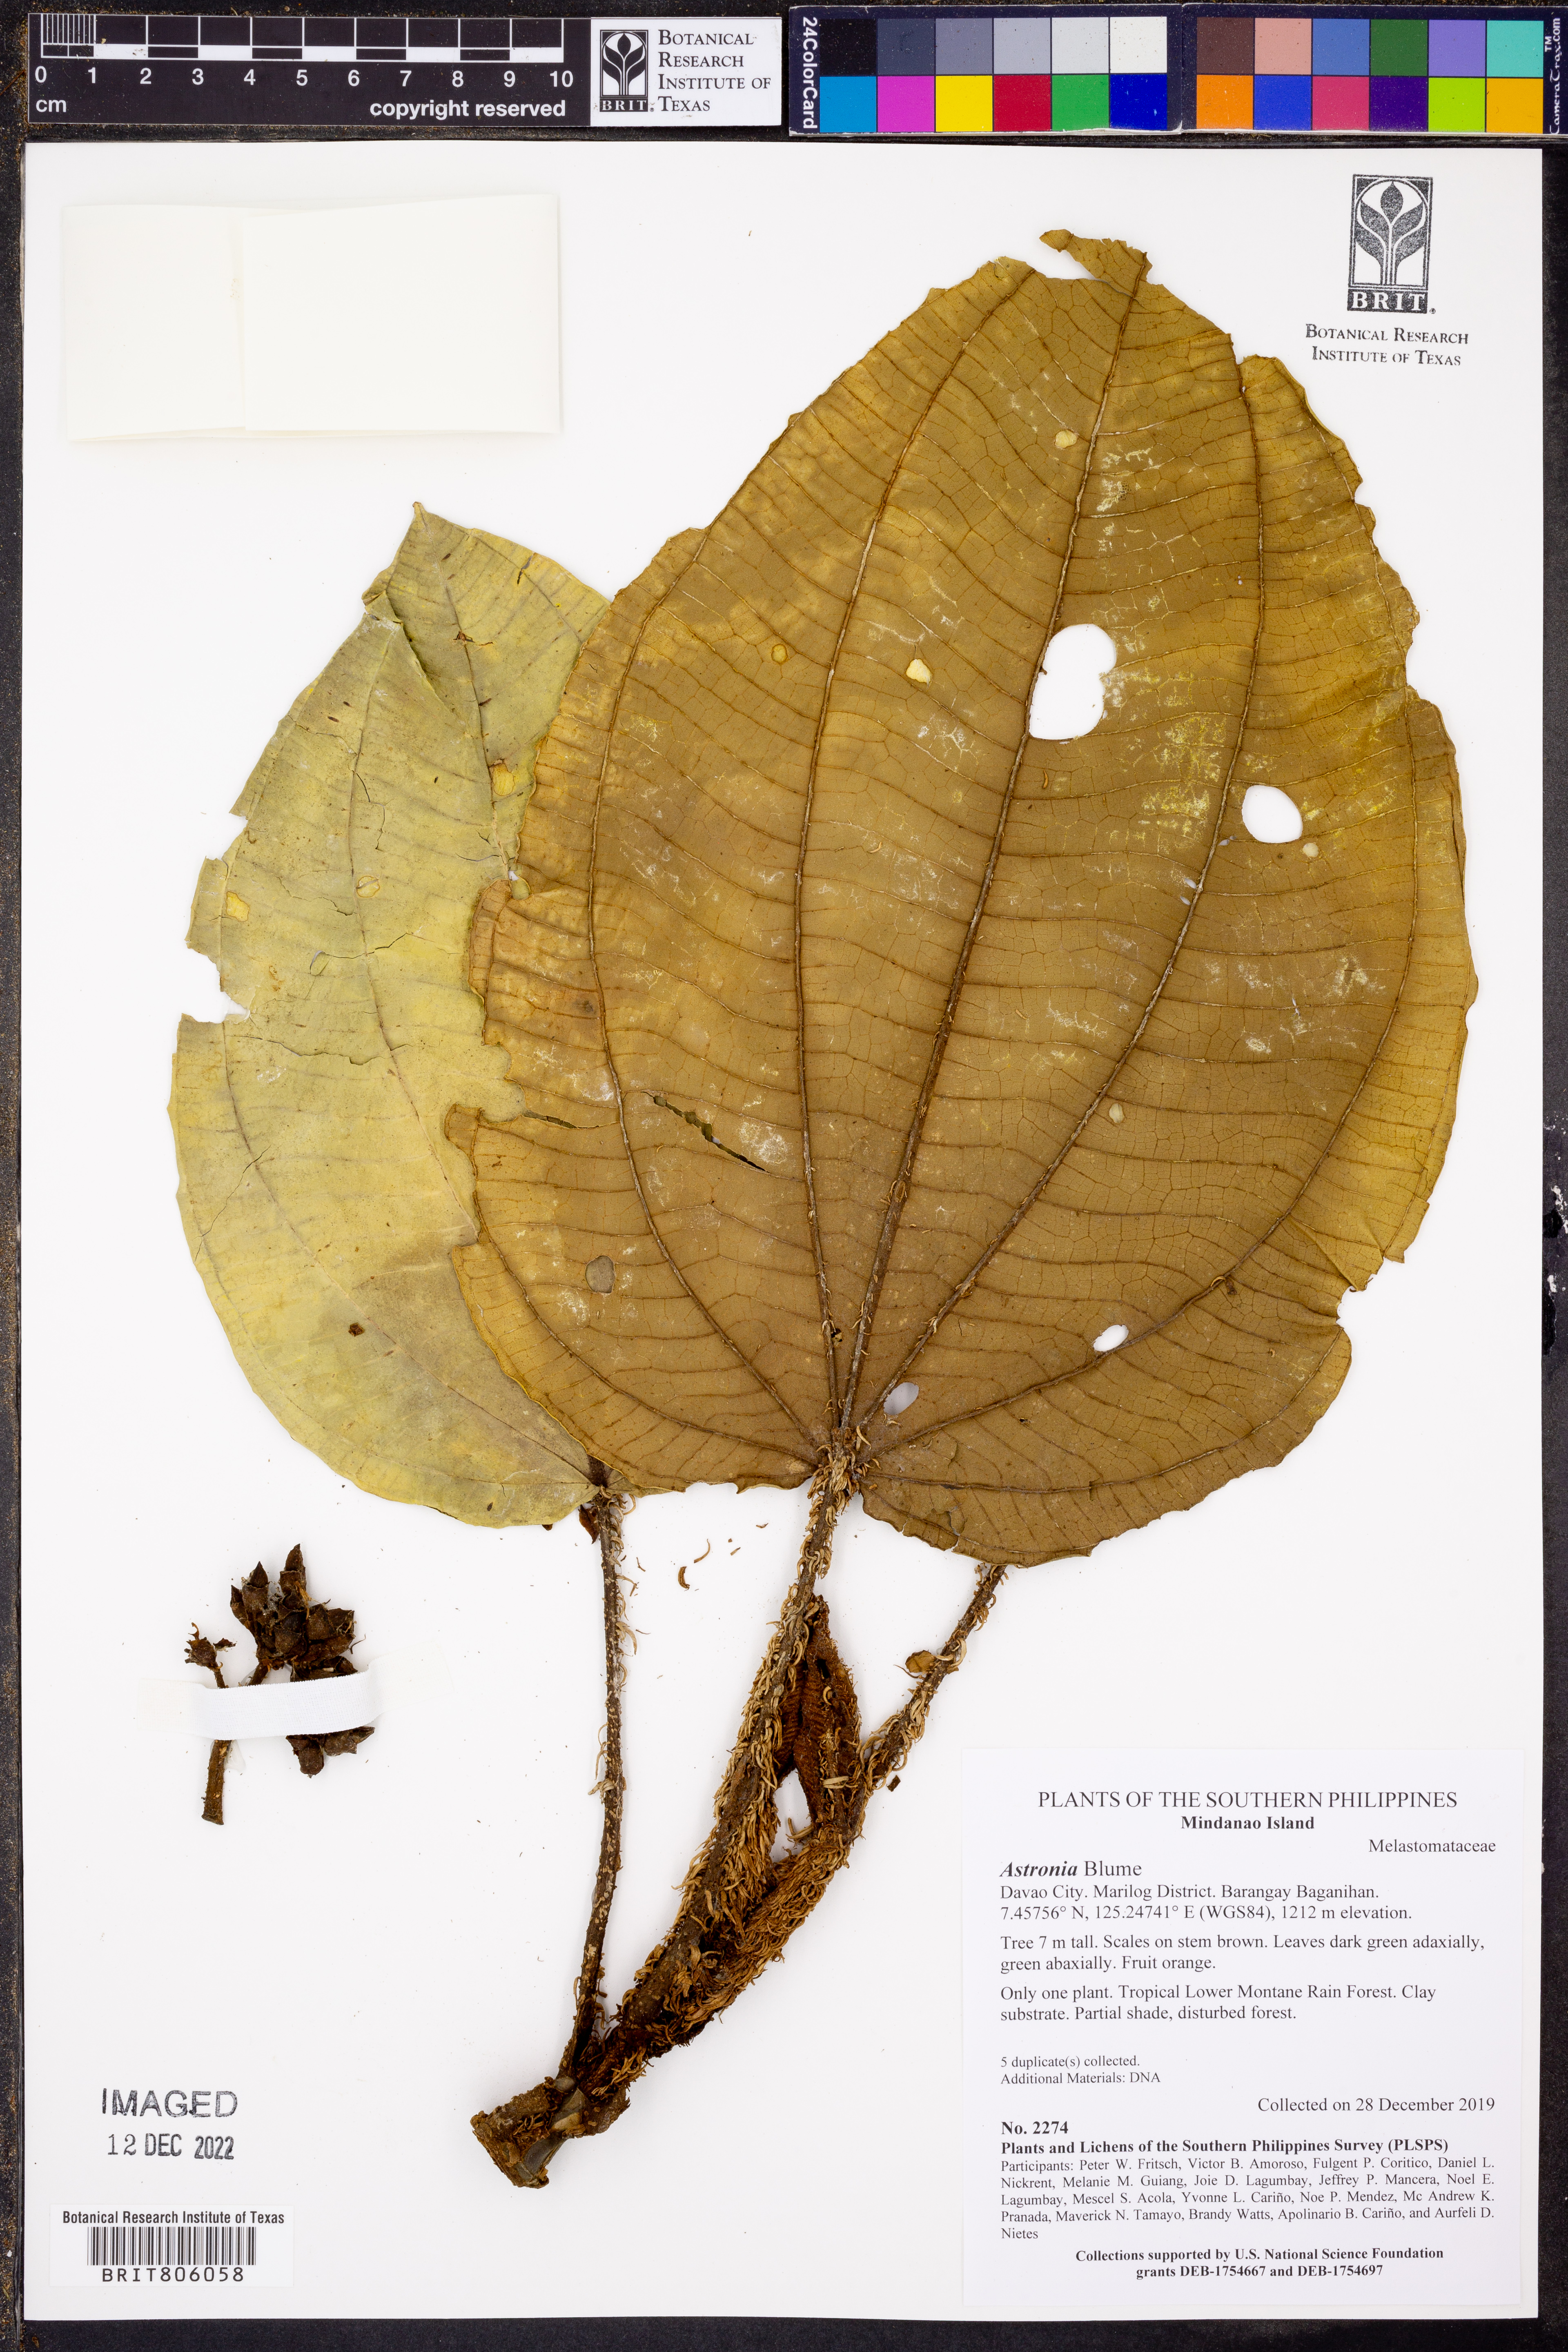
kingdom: Plantae
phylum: Tracheophyta
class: Magnoliopsida
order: Myrtales
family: Melastomataceae
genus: Astronia
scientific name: Astronia
